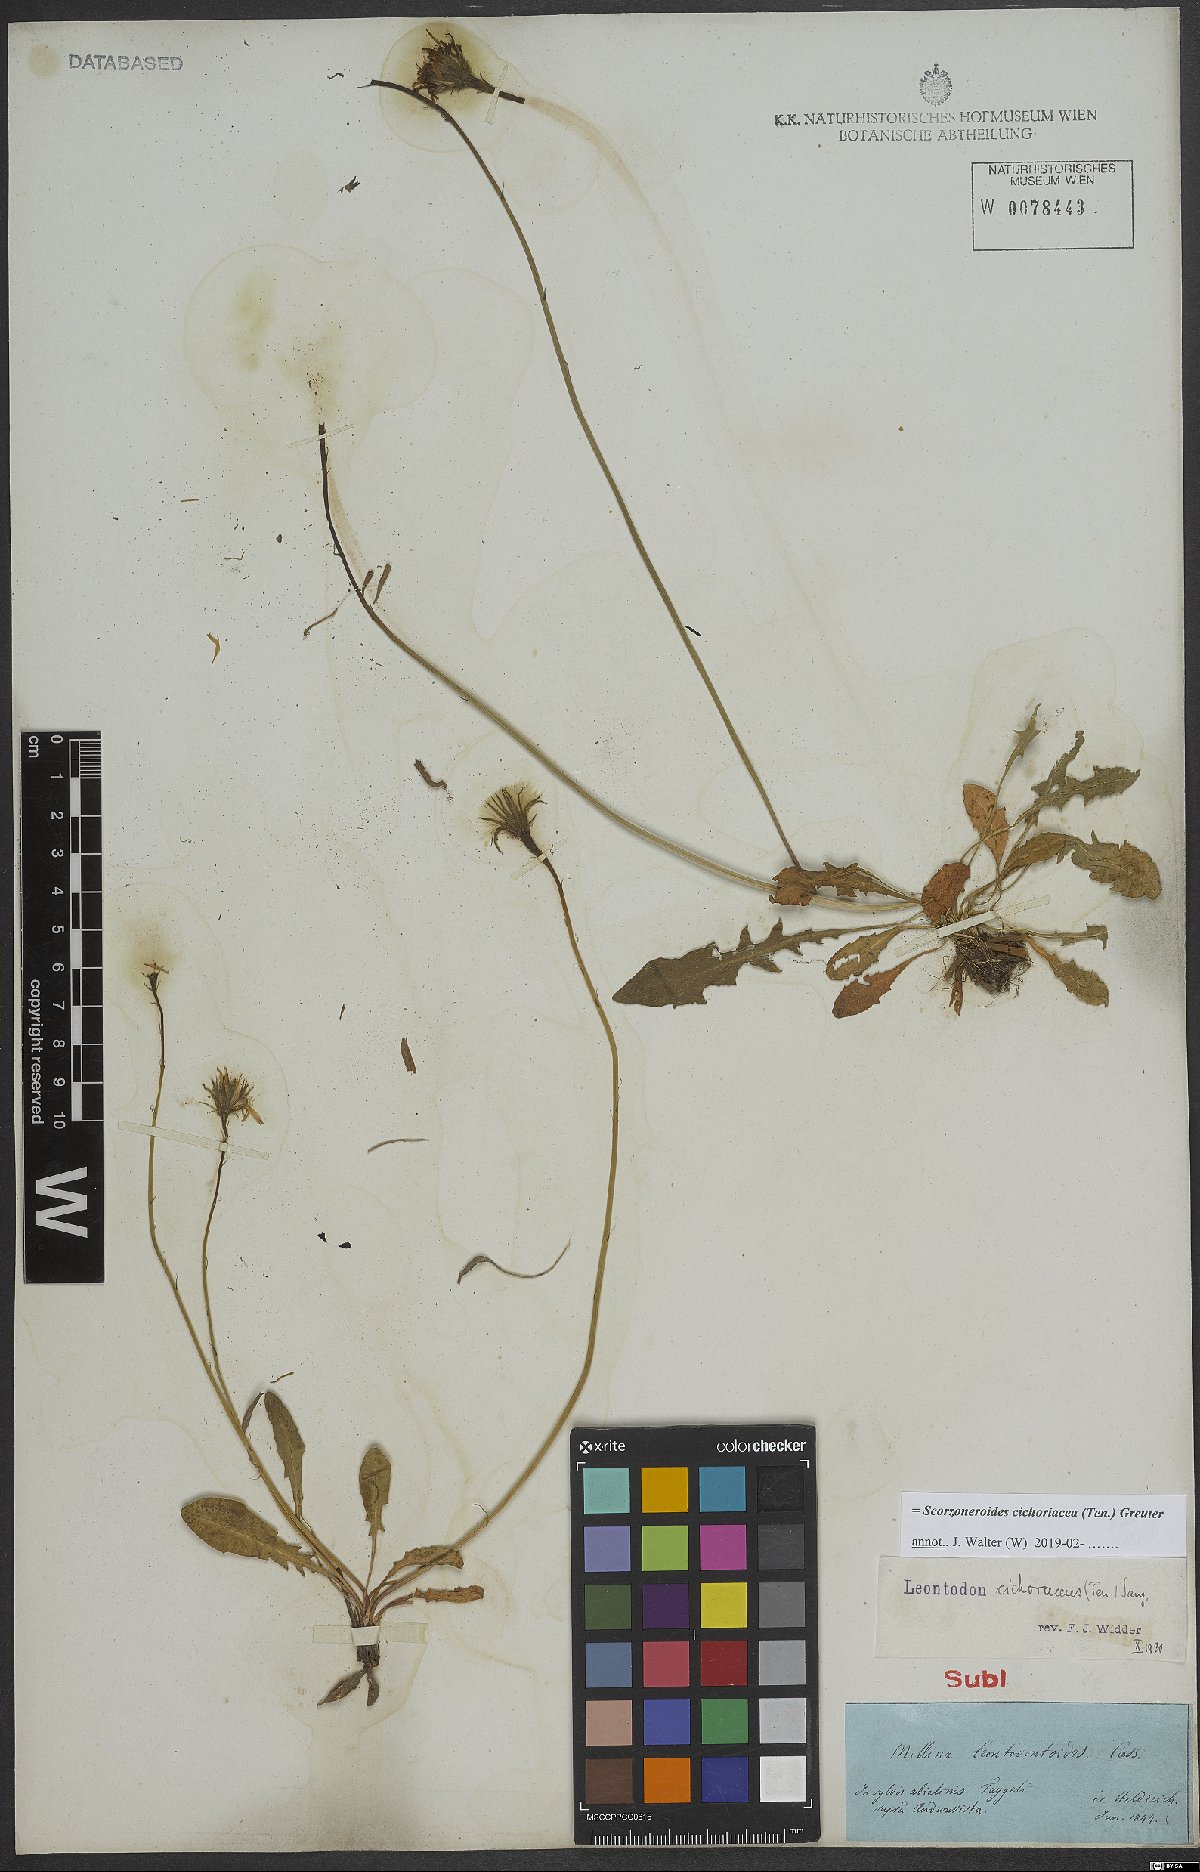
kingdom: Plantae
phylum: Tracheophyta
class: Magnoliopsida
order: Asterales
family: Asteraceae
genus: Scorzoneroides
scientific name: Scorzoneroides cichoriacea
